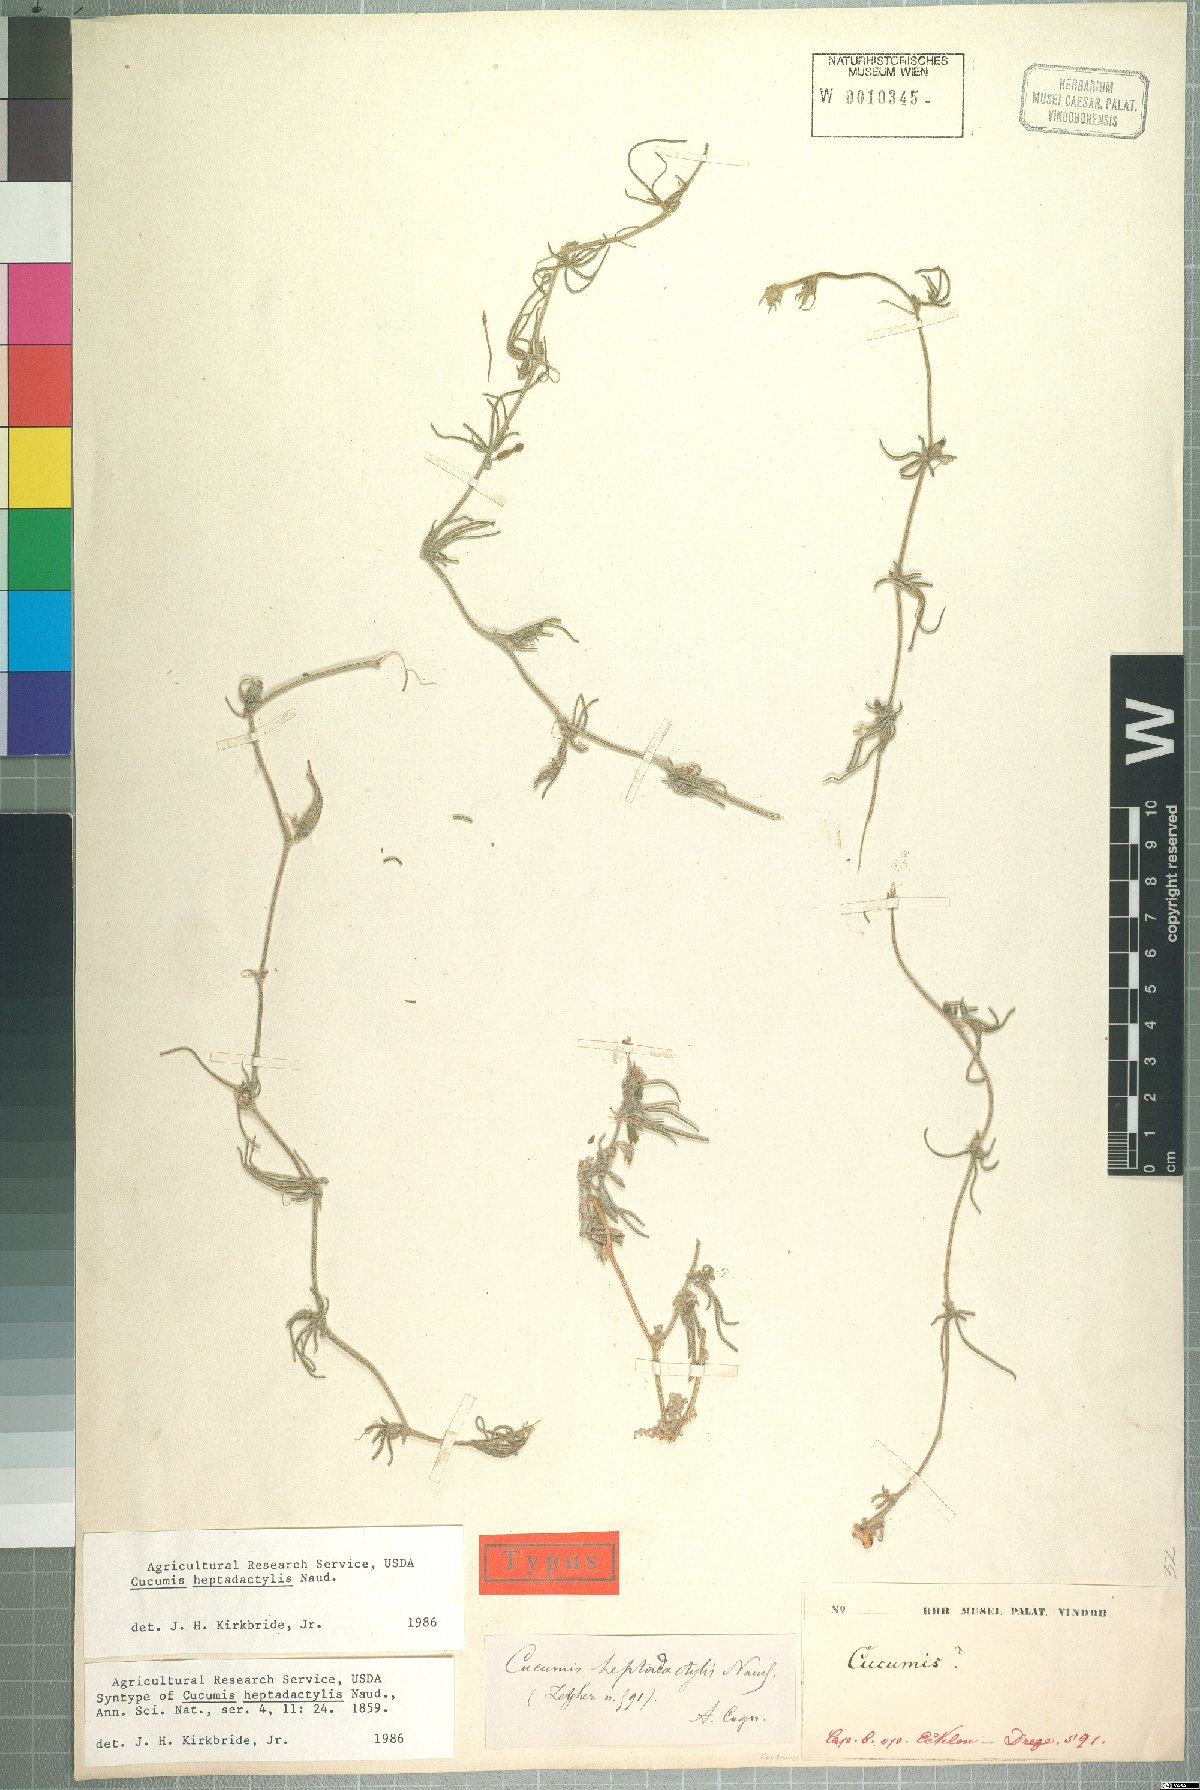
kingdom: Plantae
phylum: Tracheophyta
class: Magnoliopsida
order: Cucurbitales
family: Cucurbitaceae
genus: Cucumis
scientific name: Cucumis heptadactylus
